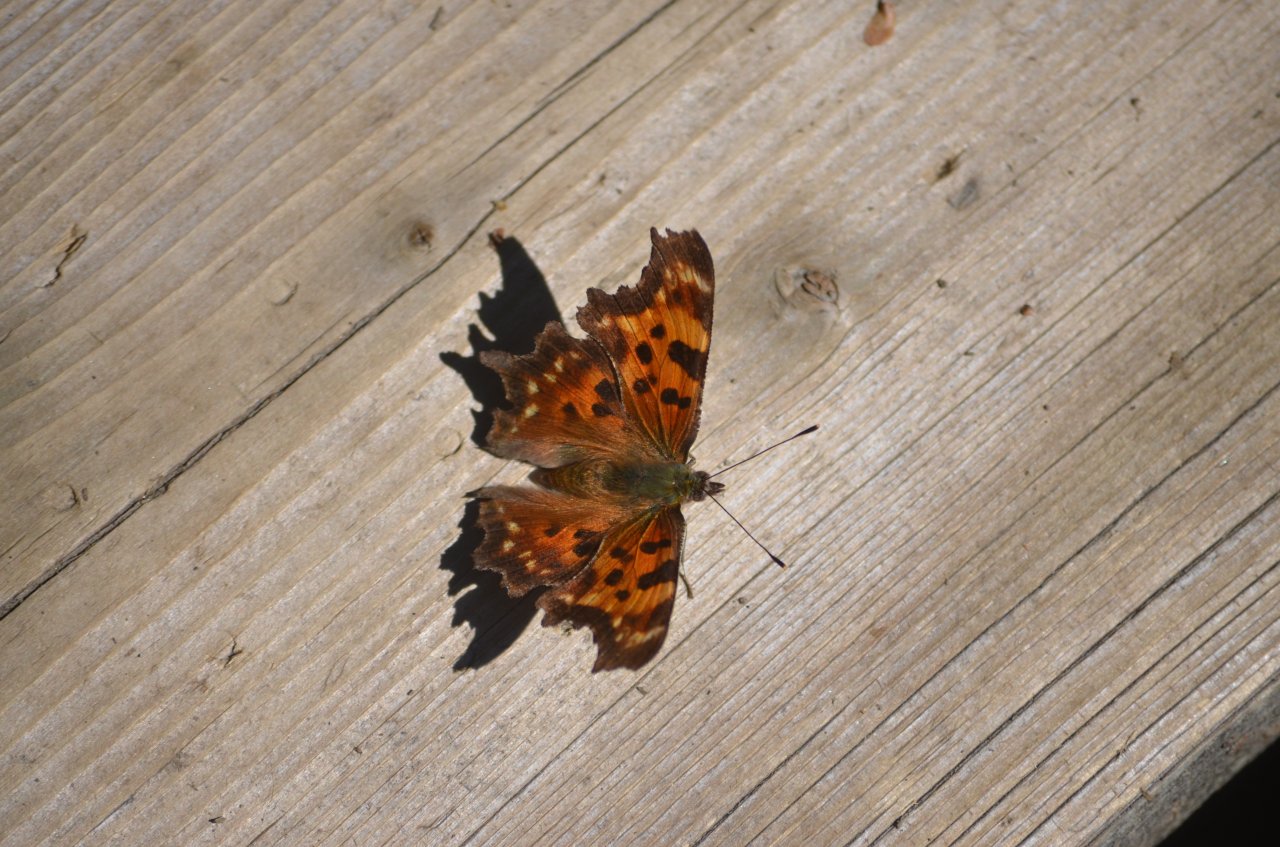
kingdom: Animalia
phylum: Arthropoda
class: Insecta
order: Lepidoptera
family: Nymphalidae
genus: Polygonia
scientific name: Polygonia faunus
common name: Green Comma
